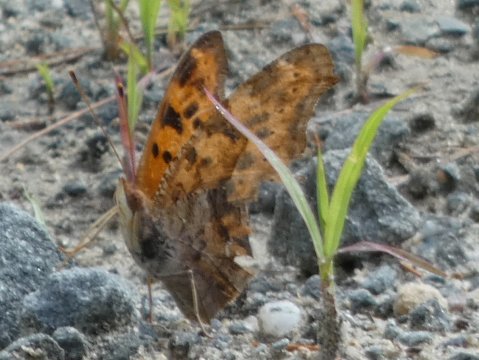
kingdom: Animalia
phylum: Arthropoda
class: Insecta
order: Lepidoptera
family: Nymphalidae
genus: Polygonia
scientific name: Polygonia interrogationis
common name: Question Mark
